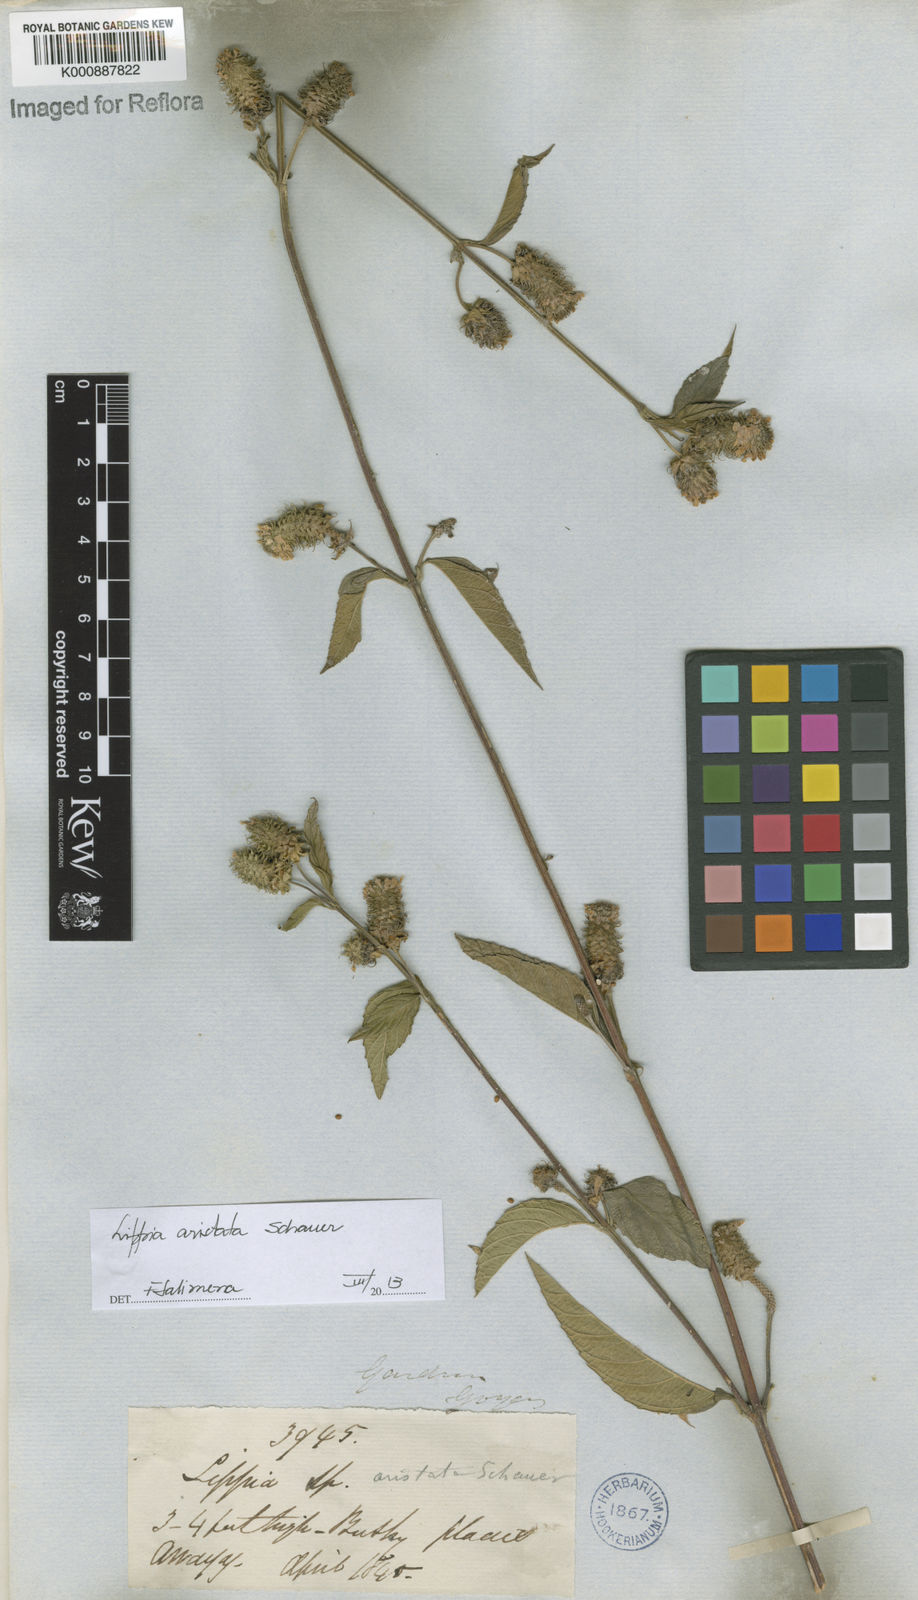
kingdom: Plantae
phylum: Tracheophyta
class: Magnoliopsida
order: Lamiales
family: Verbenaceae
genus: Lippia
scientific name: Lippia aristata
